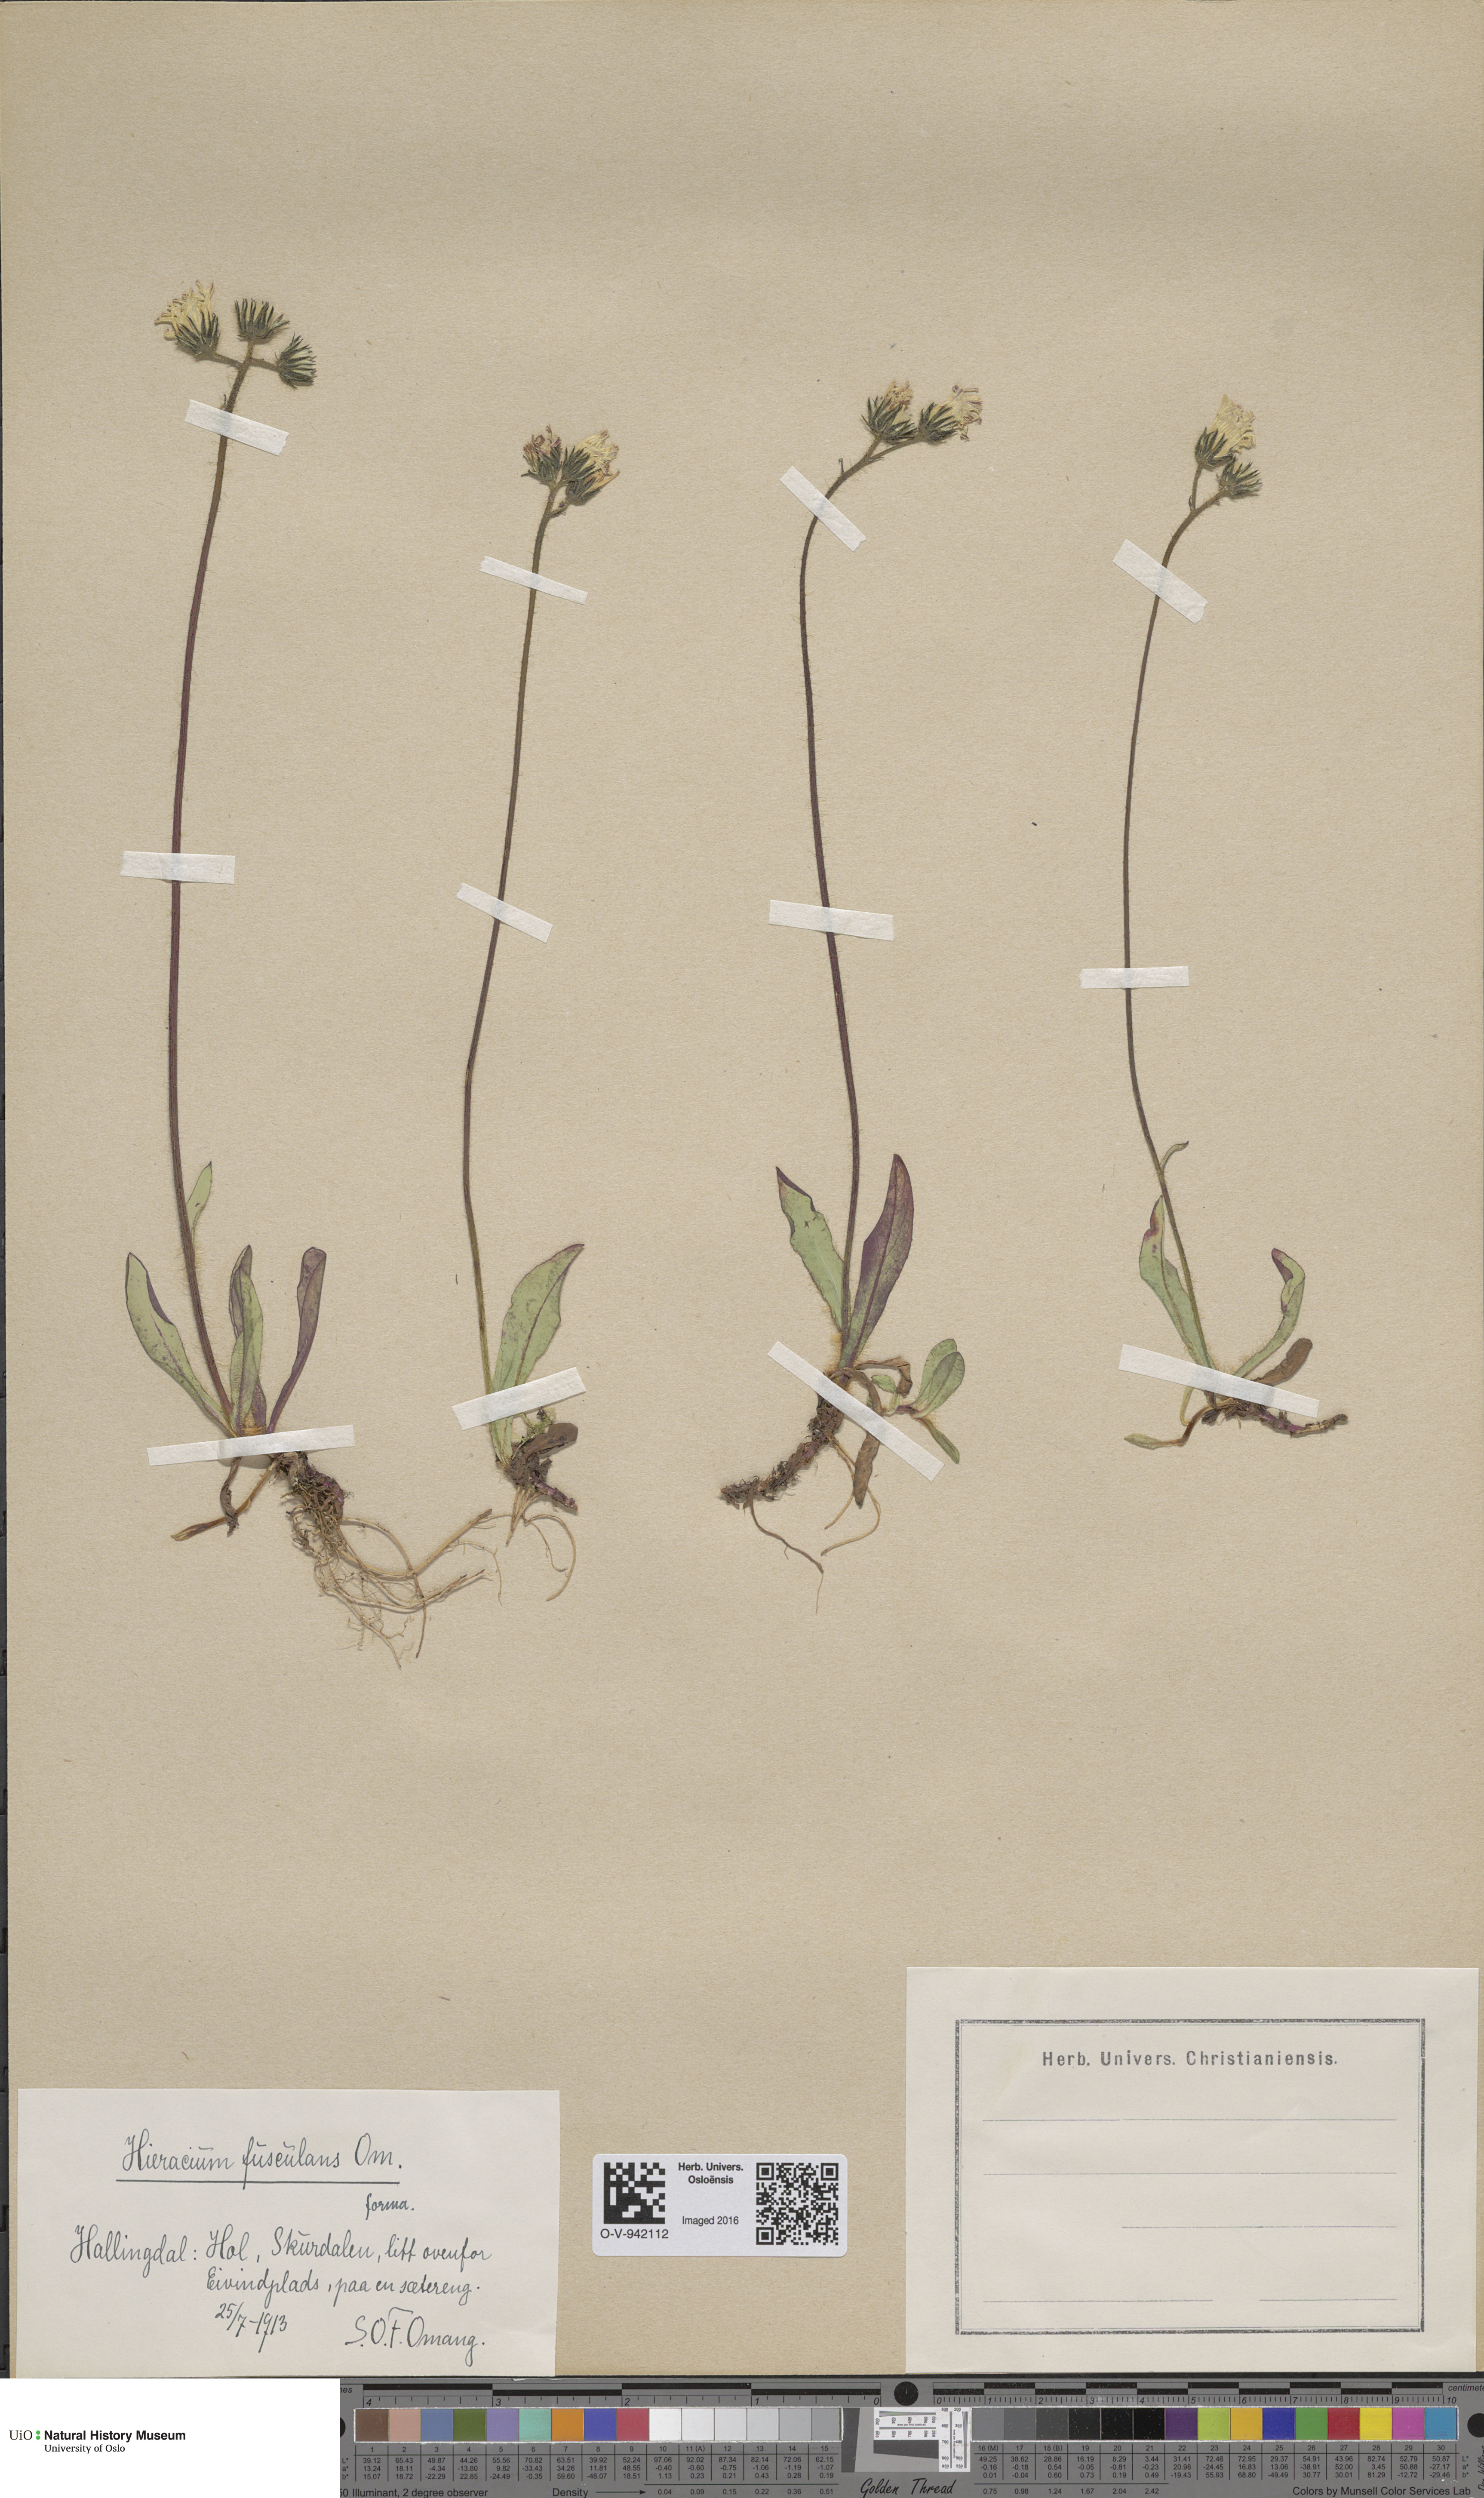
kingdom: Plantae
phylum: Tracheophyta
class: Magnoliopsida
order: Asterales
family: Asteraceae
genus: Pilosella
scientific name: Pilosella dubia
